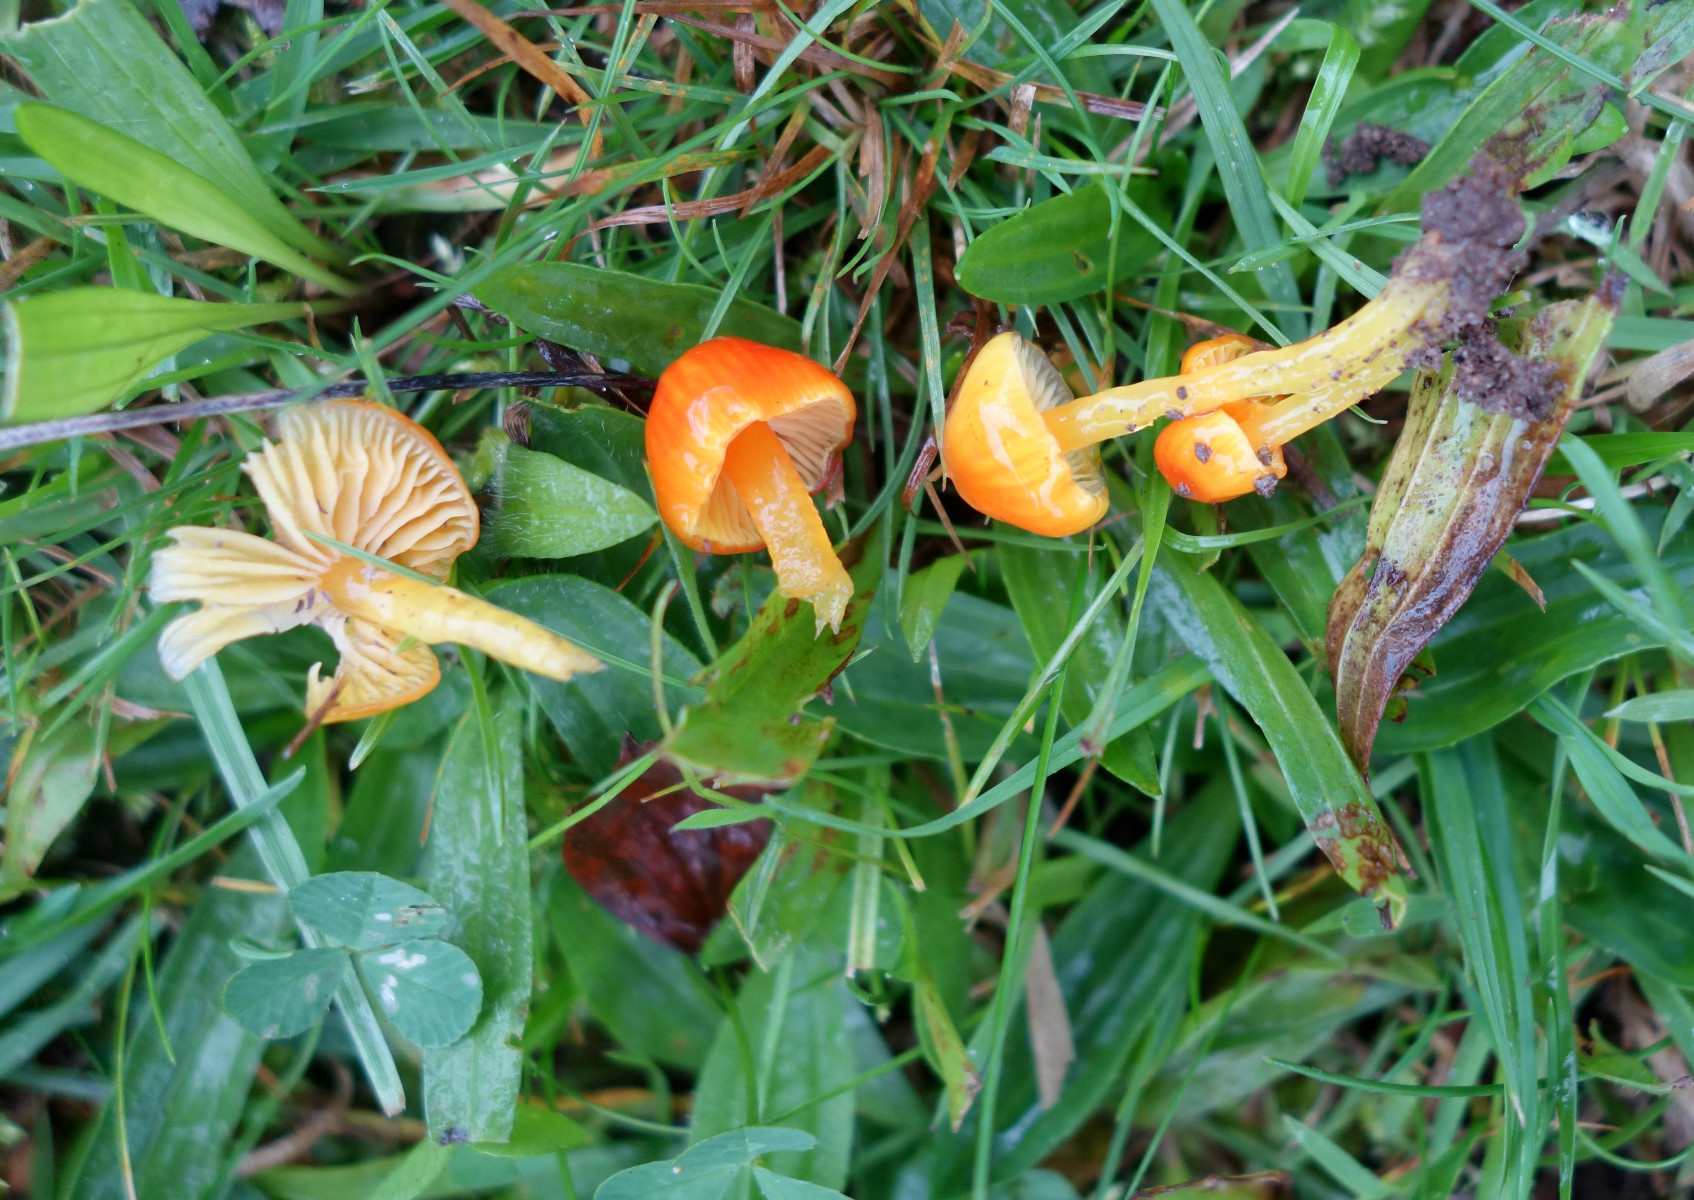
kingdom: Fungi
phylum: Basidiomycota
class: Agaricomycetes
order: Agaricales
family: Hygrophoraceae
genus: Hygrocybe
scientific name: Hygrocybe glutinipes
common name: slimstokket vokshat
